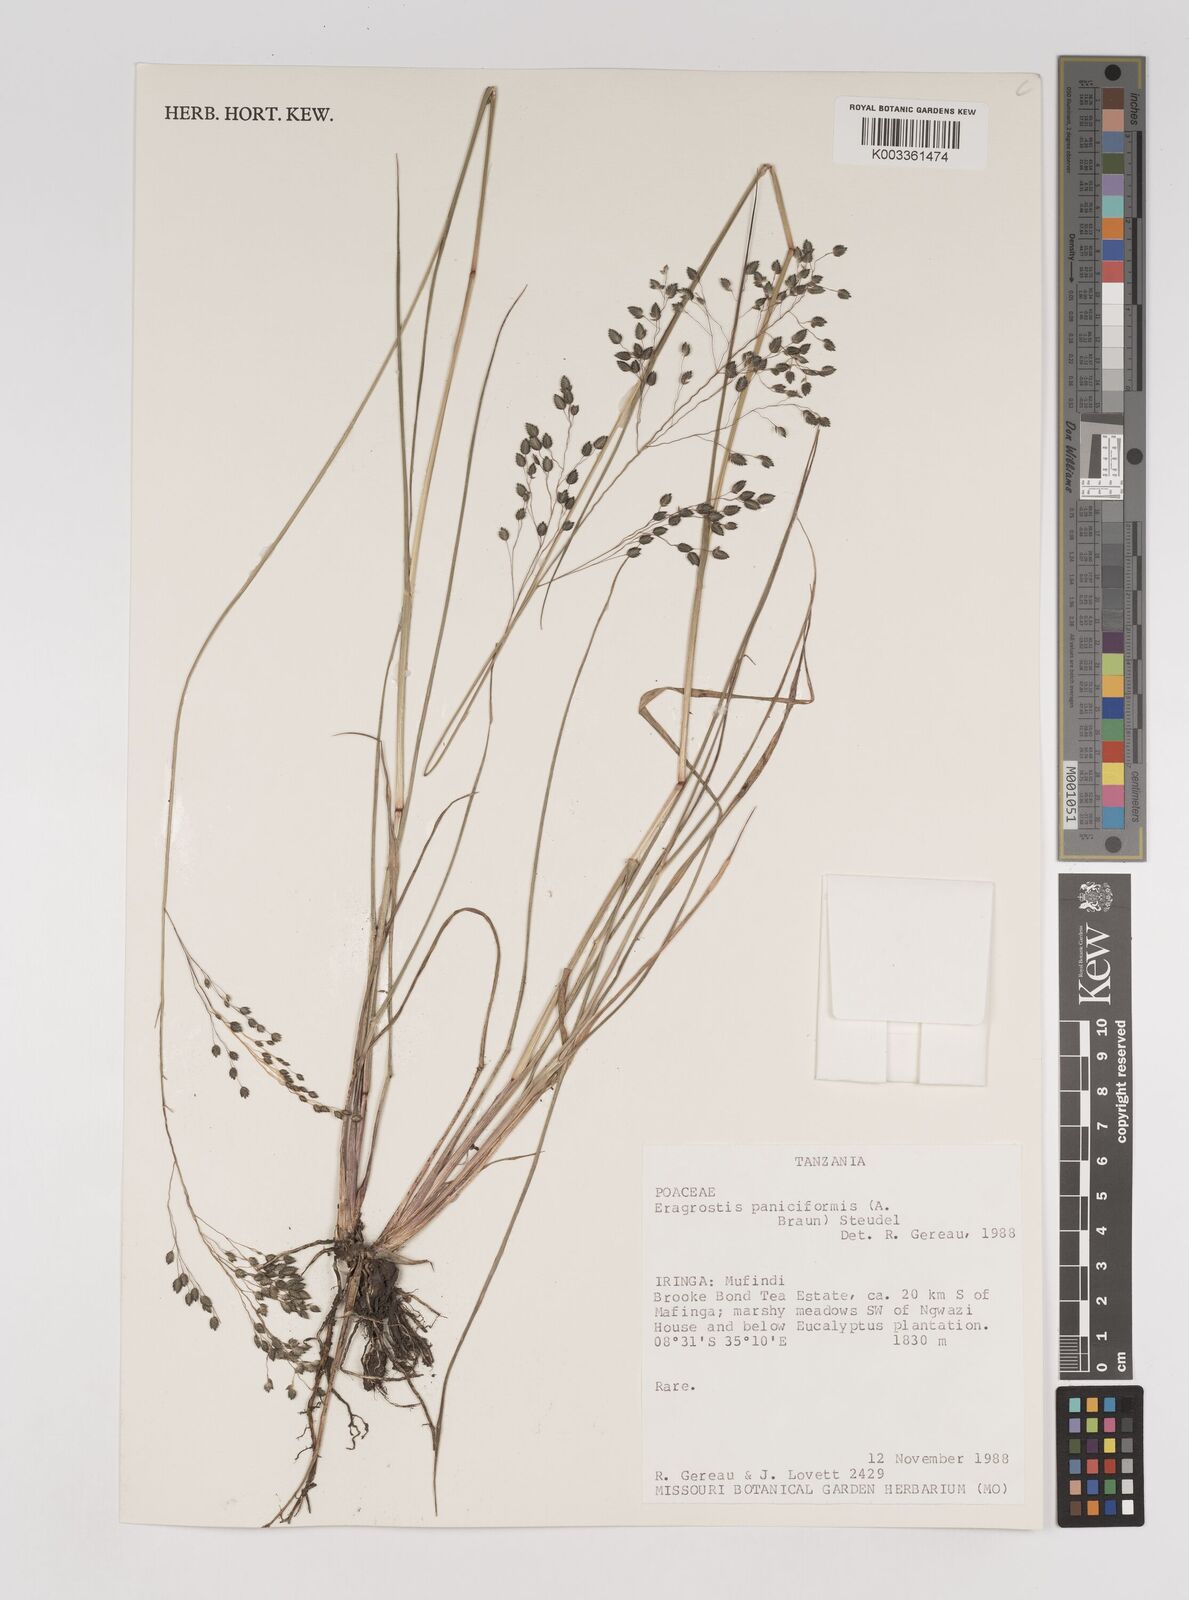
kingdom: Plantae
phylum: Tracheophyta
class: Liliopsida
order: Poales
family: Poaceae
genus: Eragrostis
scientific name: Eragrostis paniciformis
